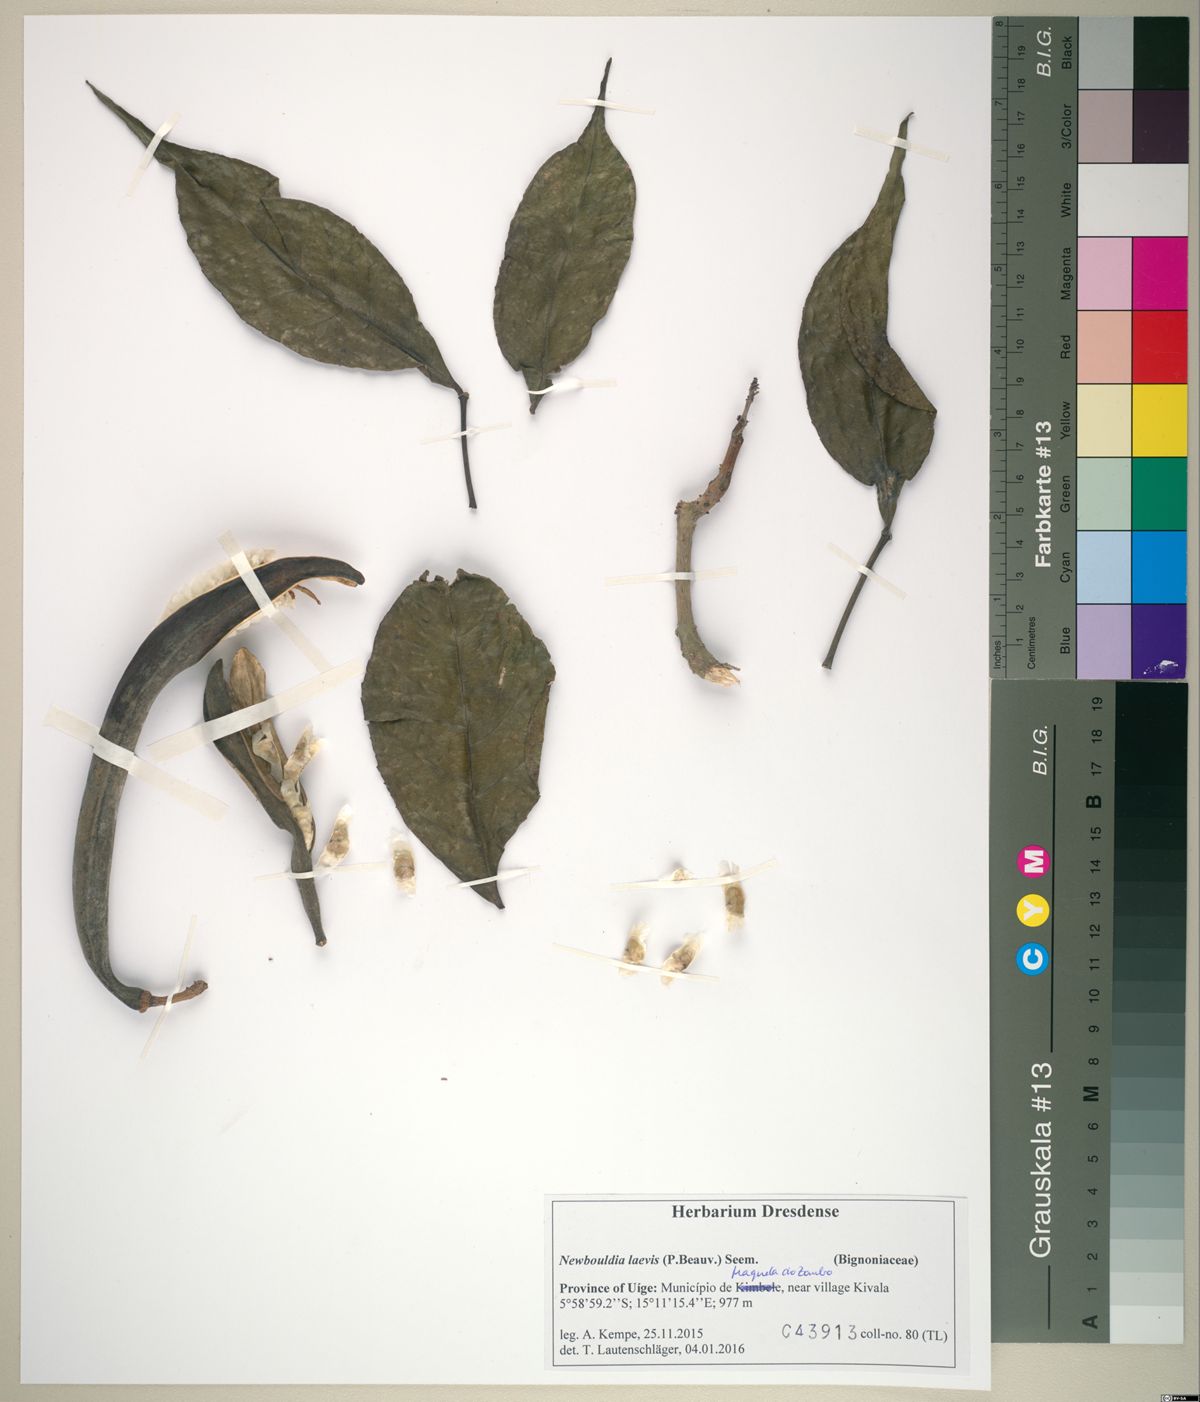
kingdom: Plantae
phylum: Tracheophyta
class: Magnoliopsida
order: Lamiales
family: Bignoniaceae
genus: Newbouldia
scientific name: Newbouldia laevis
